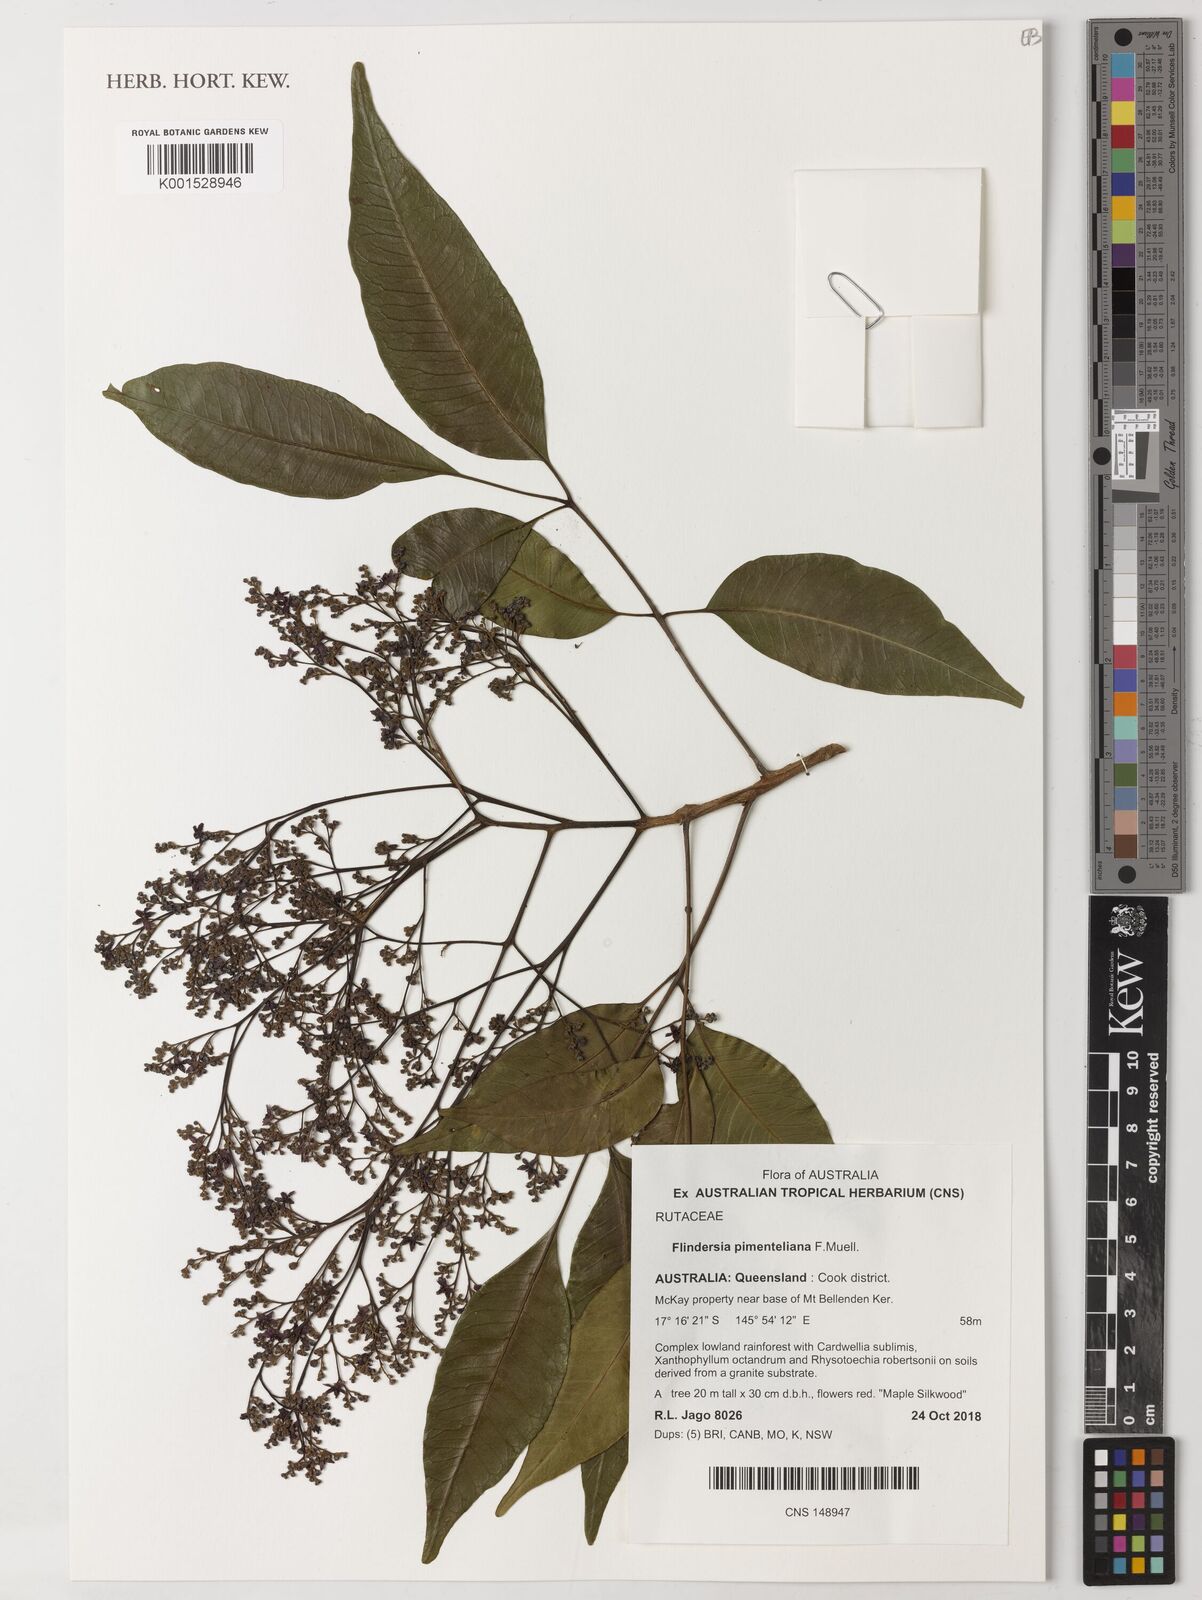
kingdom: Plantae
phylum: Tracheophyta
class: Magnoliopsida
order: Sapindales
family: Rutaceae
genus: Flindersia
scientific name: Flindersia pimenteliana
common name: Queensland-maple
